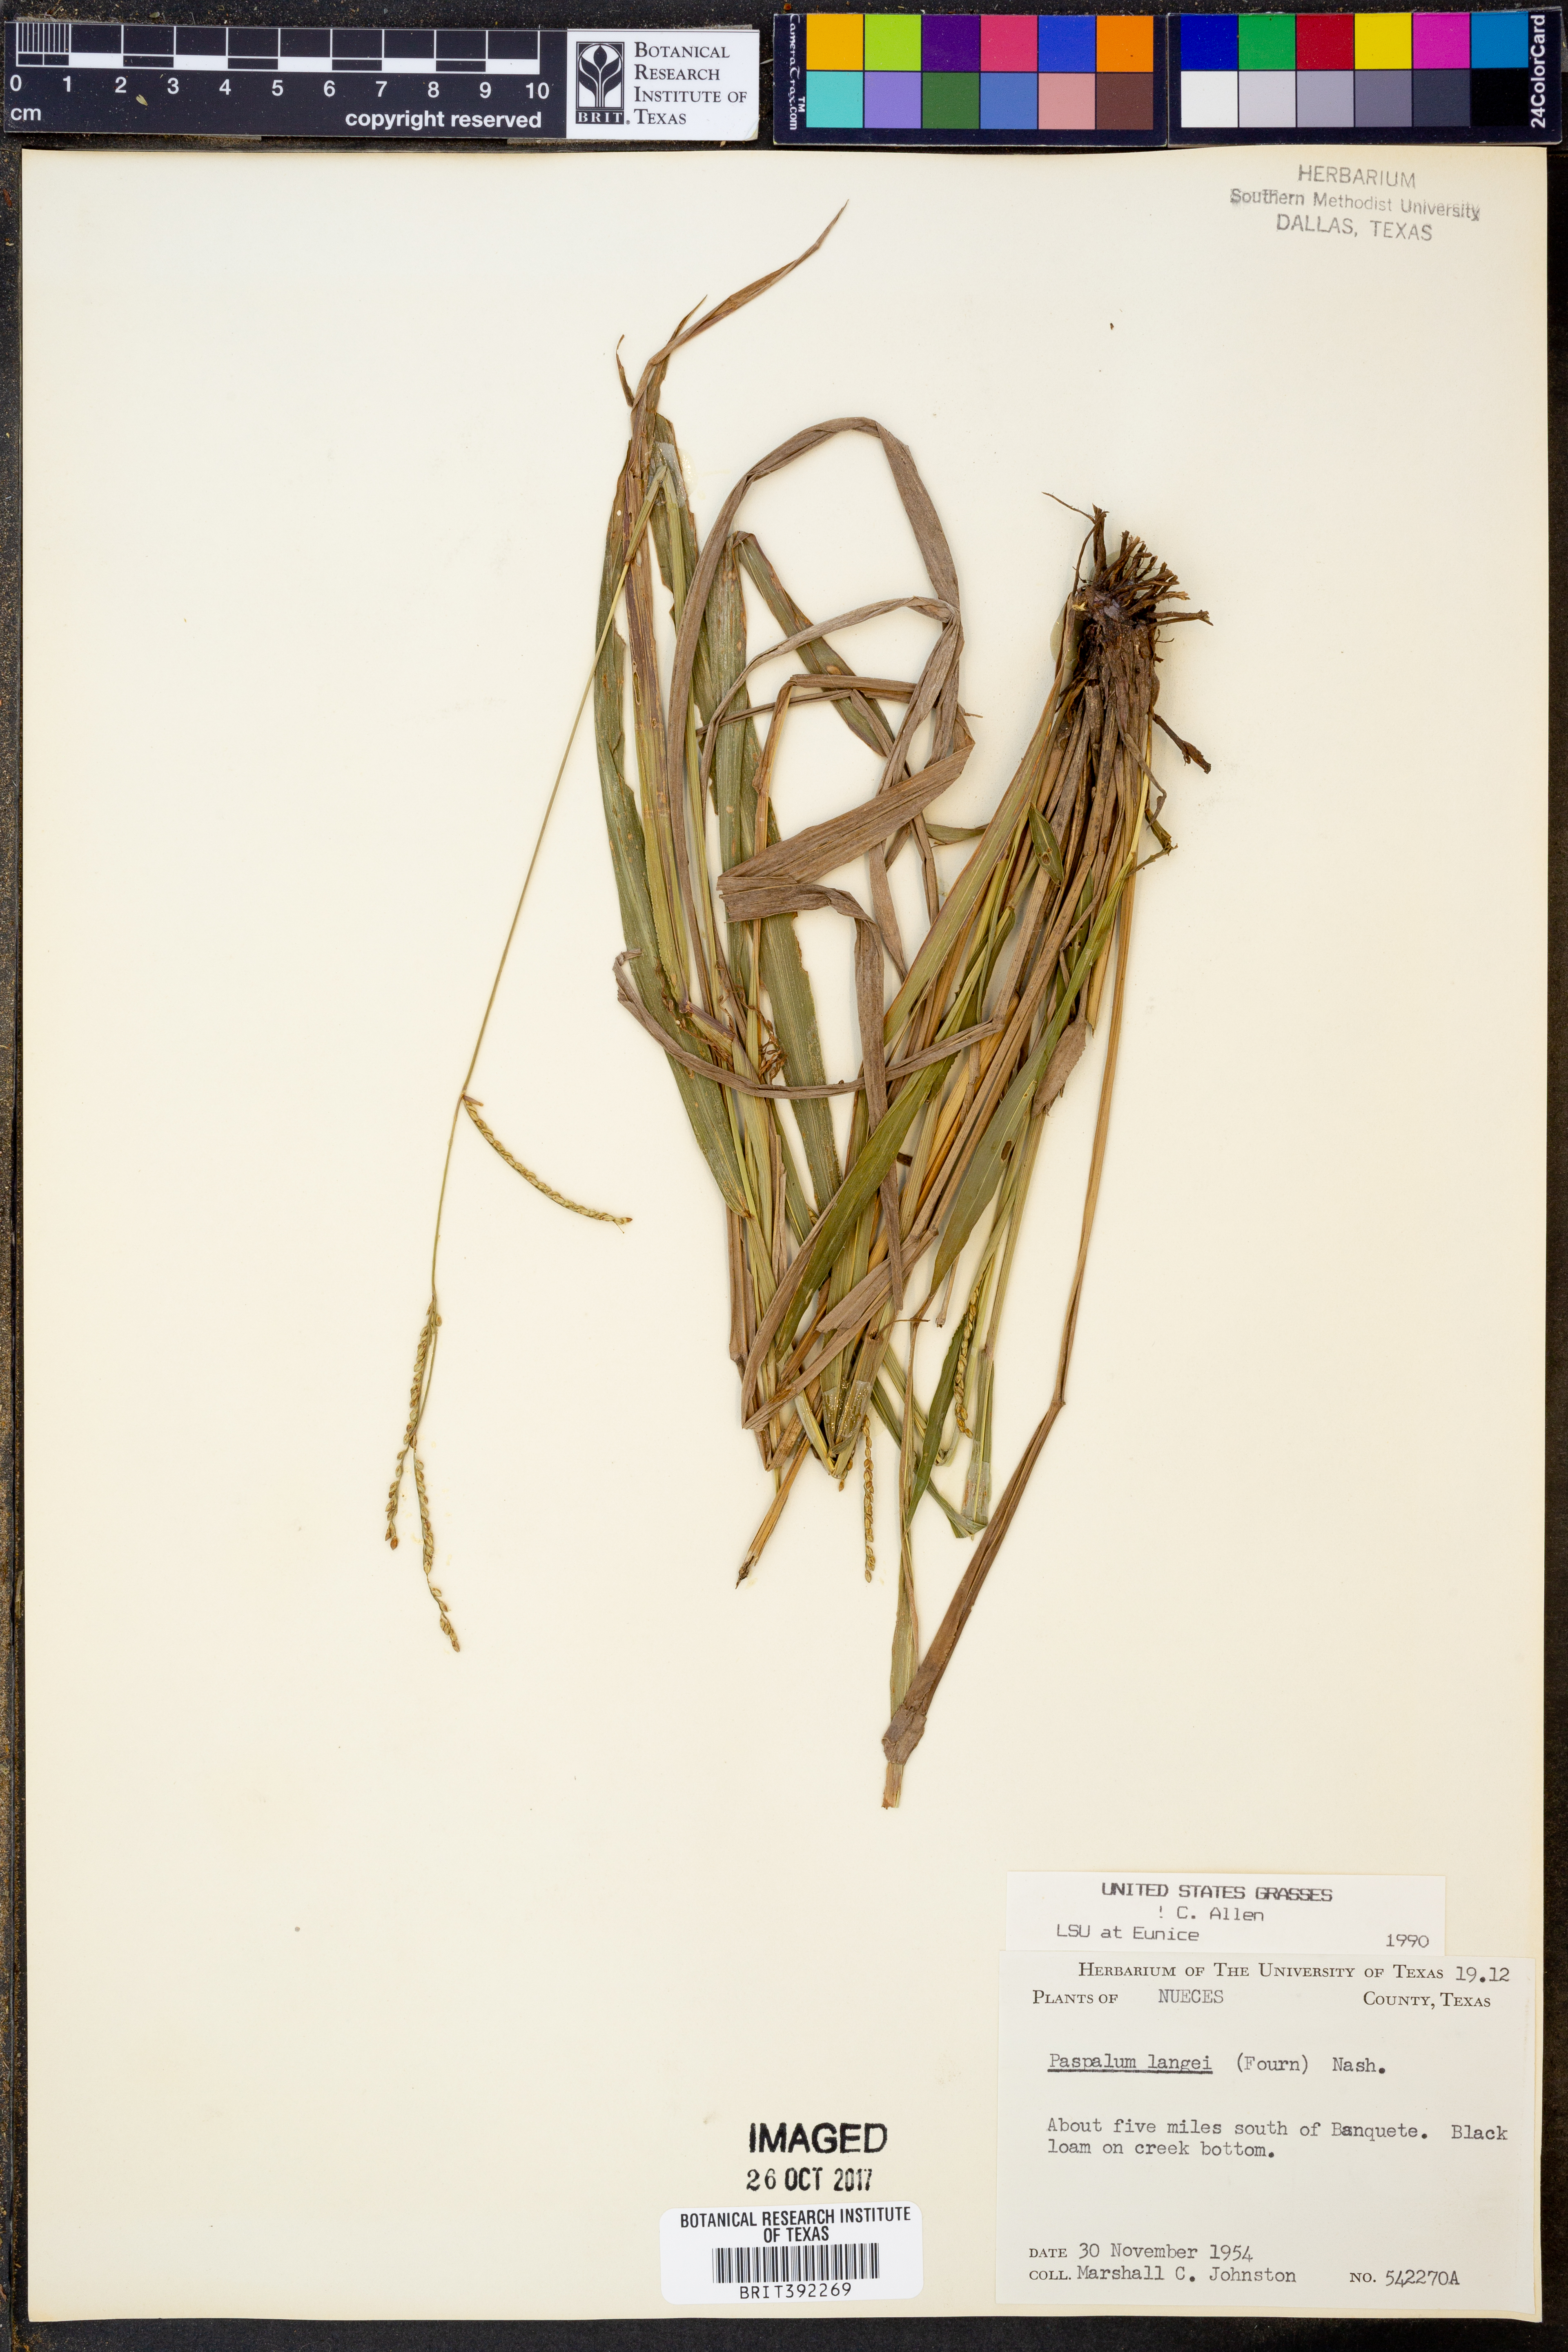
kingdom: Plantae
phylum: Tracheophyta
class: Liliopsida
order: Poales
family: Poaceae
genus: Paspalum
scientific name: Paspalum langei
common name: Rusty-seed paspalum
